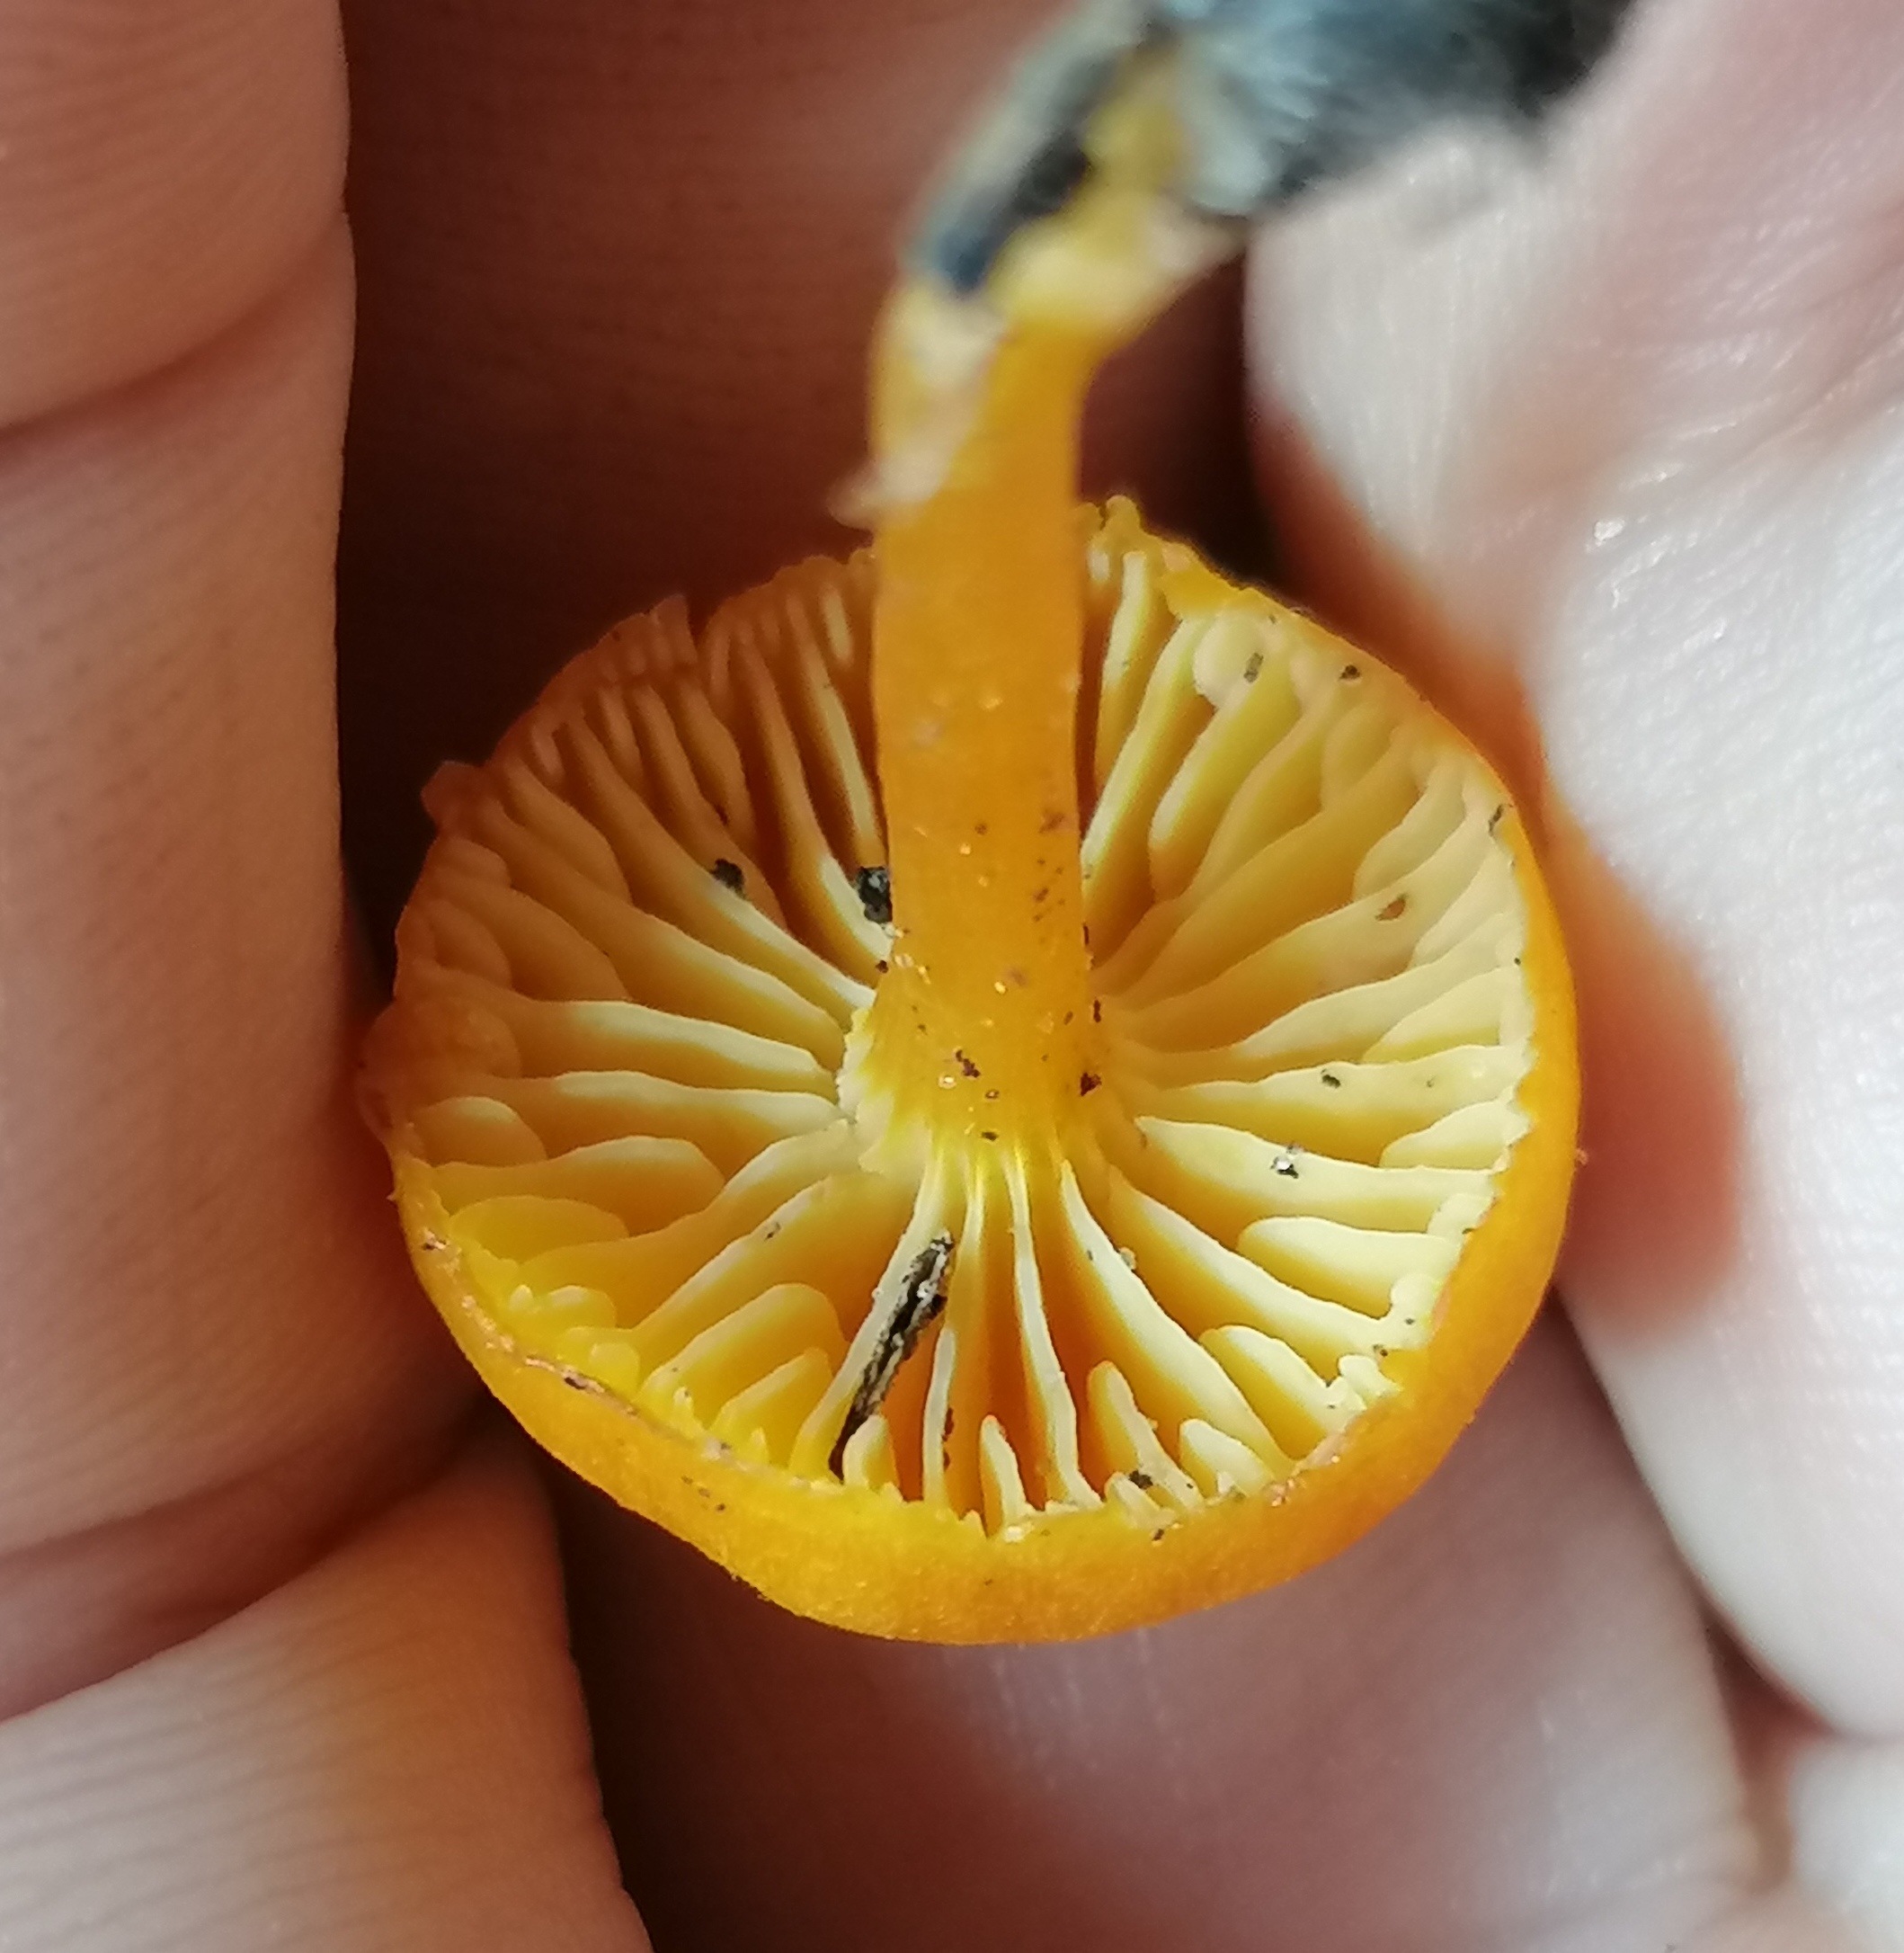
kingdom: Fungi
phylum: Basidiomycota
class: Agaricomycetes
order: Agaricales
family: Hygrophoraceae
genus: Hygrocybe
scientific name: Hygrocybe miniata
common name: mønje-vokshat
